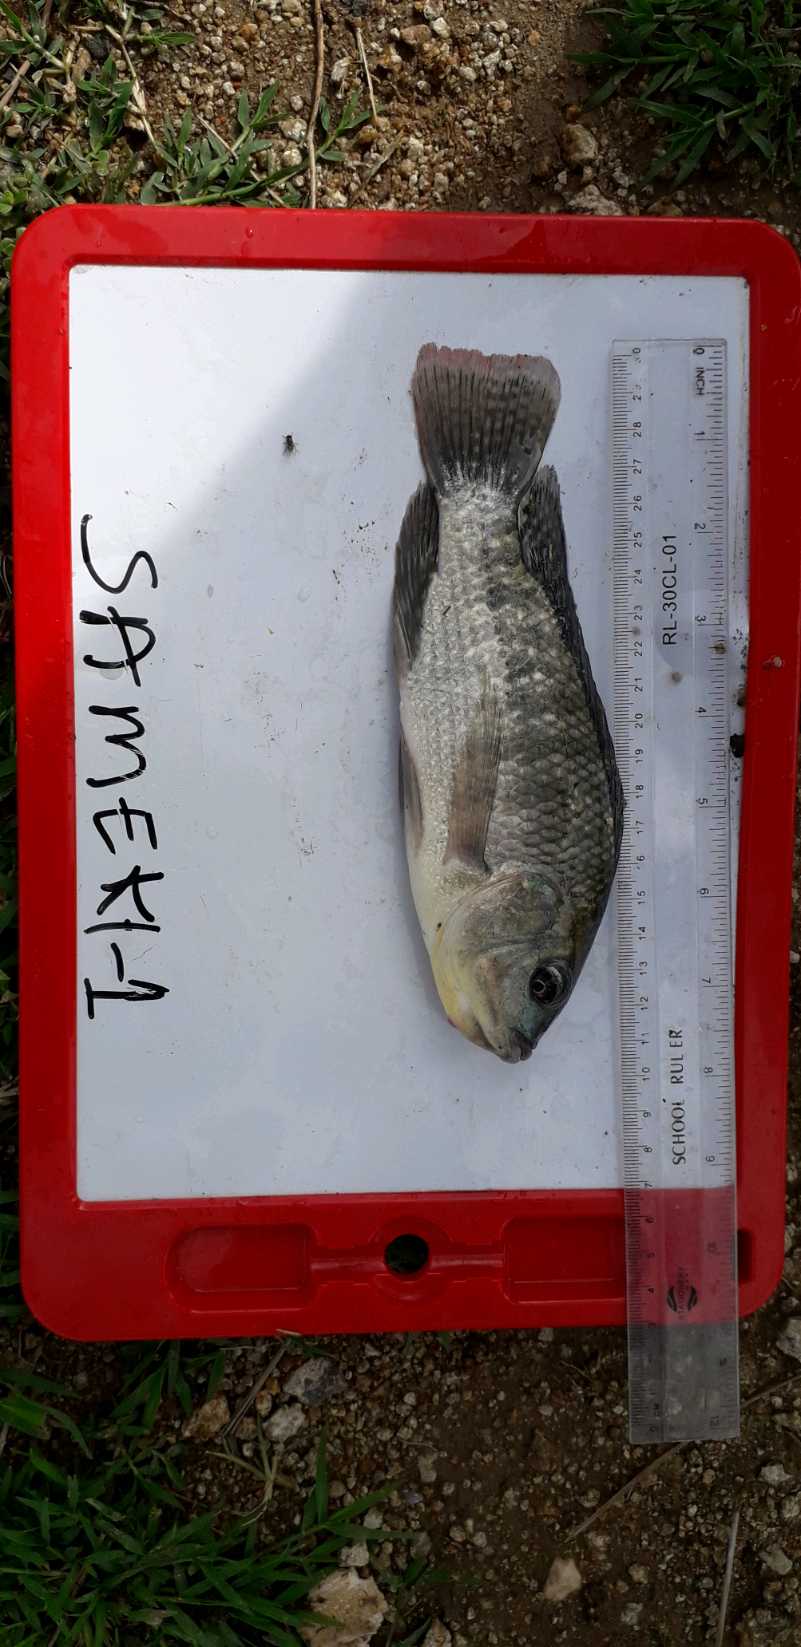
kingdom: Animalia
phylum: Chordata
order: Perciformes
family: Cichlidae
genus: Oreochromis
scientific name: Oreochromis niloticus
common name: Nile tilapia
